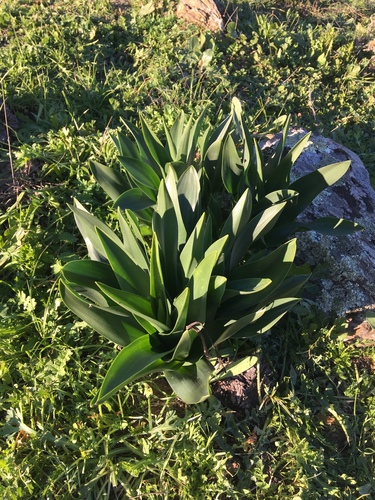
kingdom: Plantae
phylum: Tracheophyta
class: Liliopsida
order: Asparagales
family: Asparagaceae
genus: Drimia
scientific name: Drimia maritima
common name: Maritime squill
